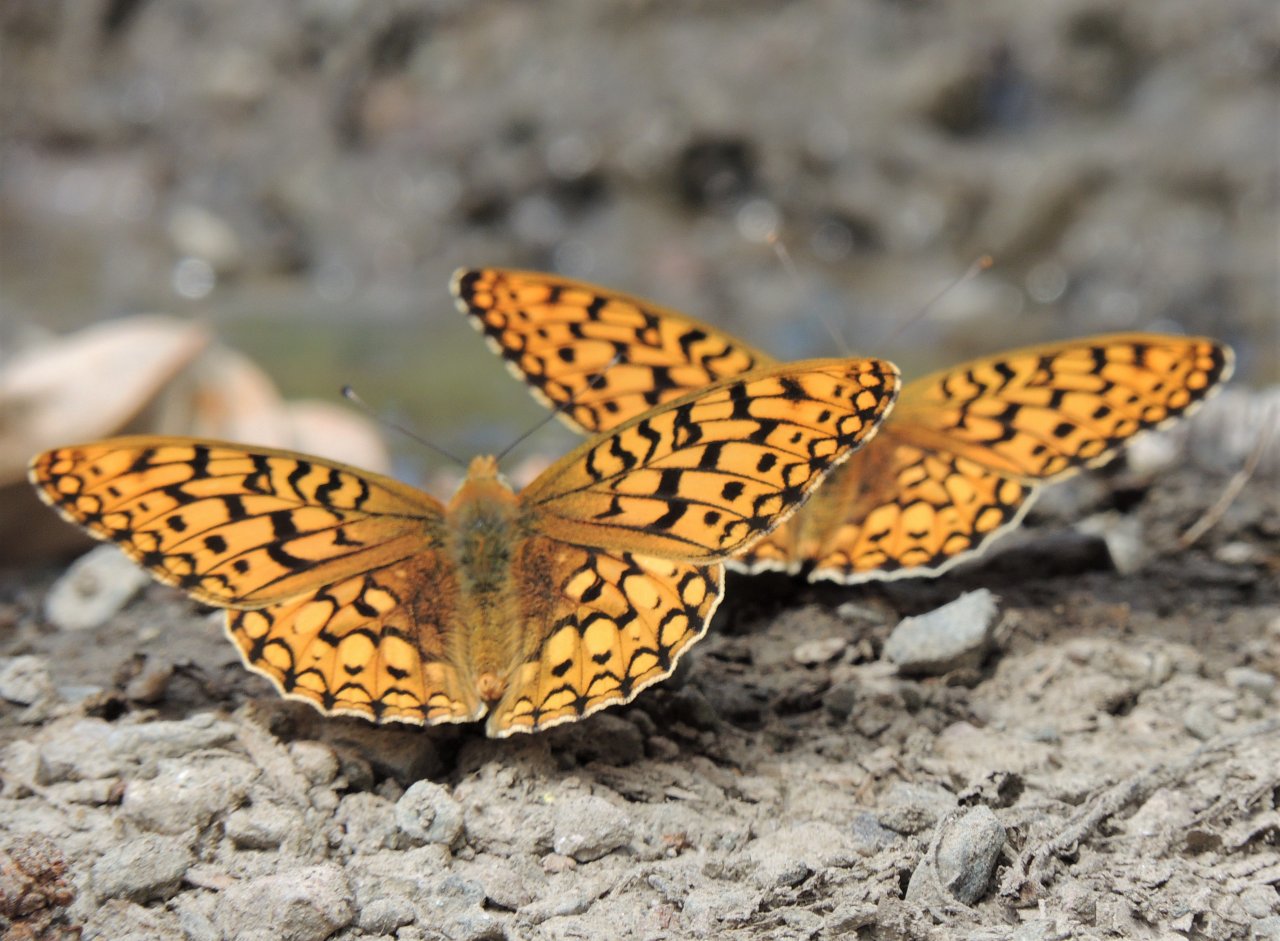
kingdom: Animalia
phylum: Arthropoda
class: Insecta
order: Lepidoptera
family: Nymphalidae
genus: Speyeria
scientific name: Speyeria callippe
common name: Callippe Fritillary
